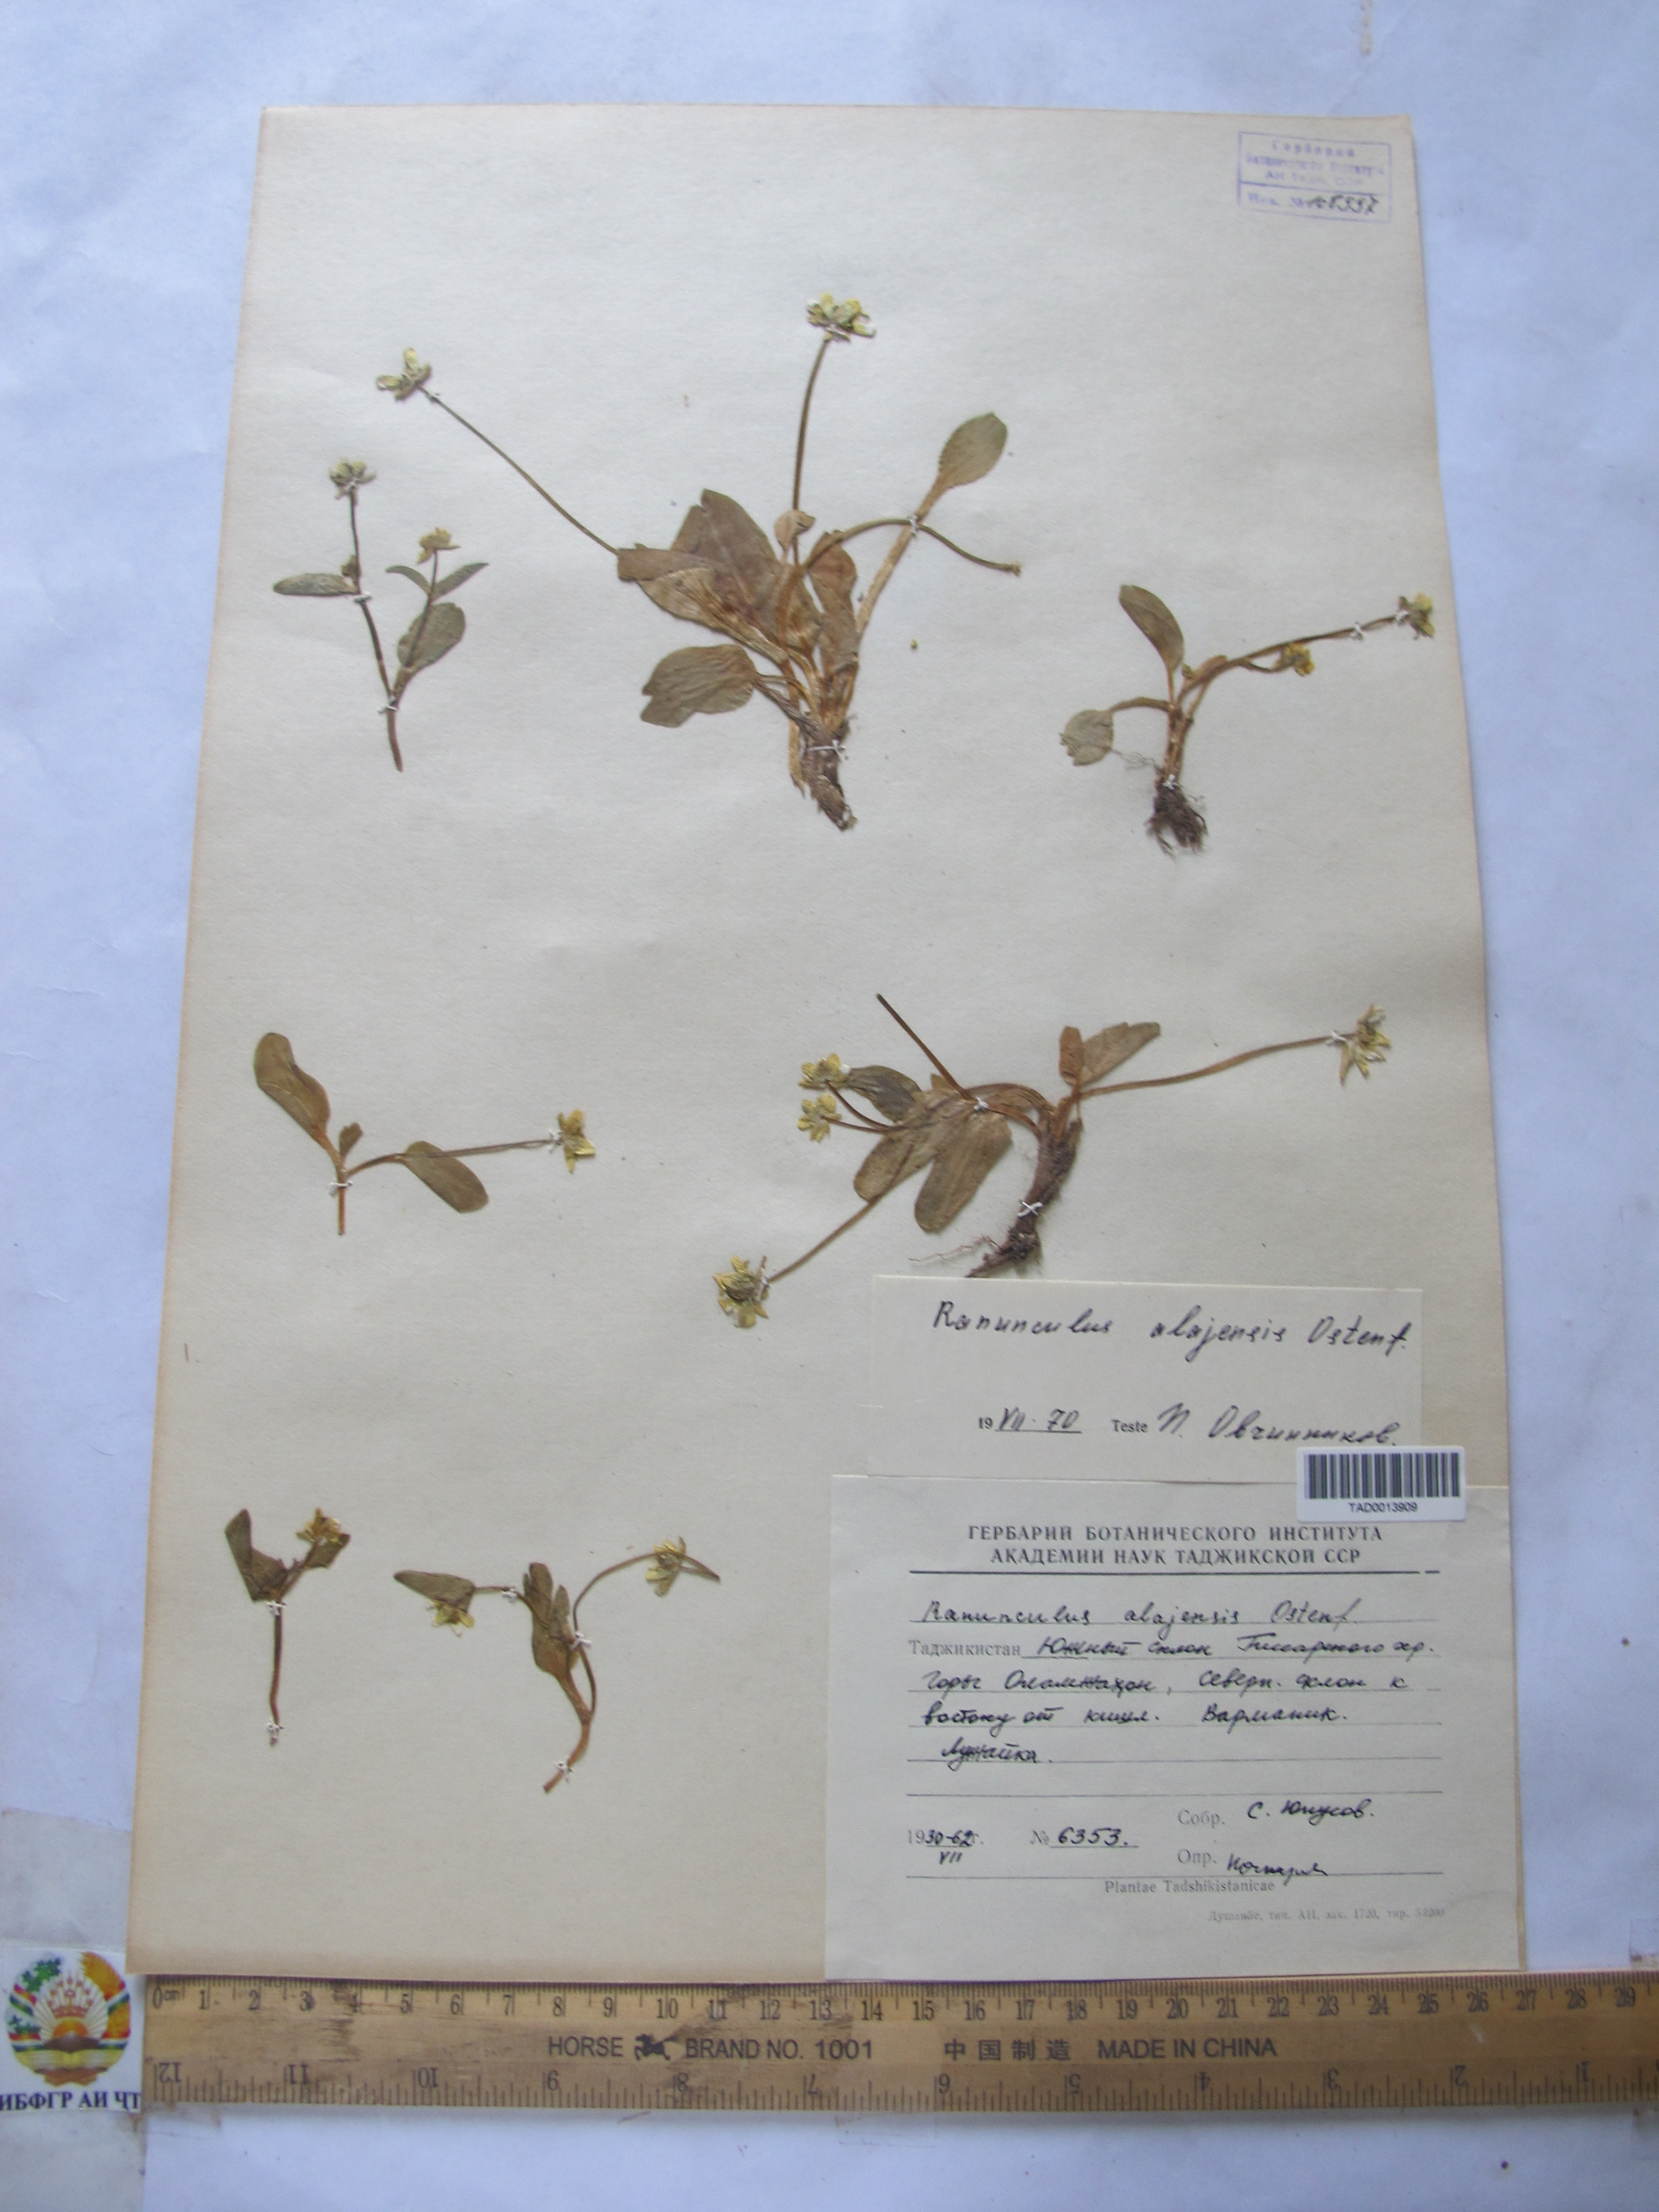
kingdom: Plantae
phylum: Tracheophyta
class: Magnoliopsida
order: Ranunculales
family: Ranunculaceae
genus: Ranunculus
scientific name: Ranunculus alaiensis
